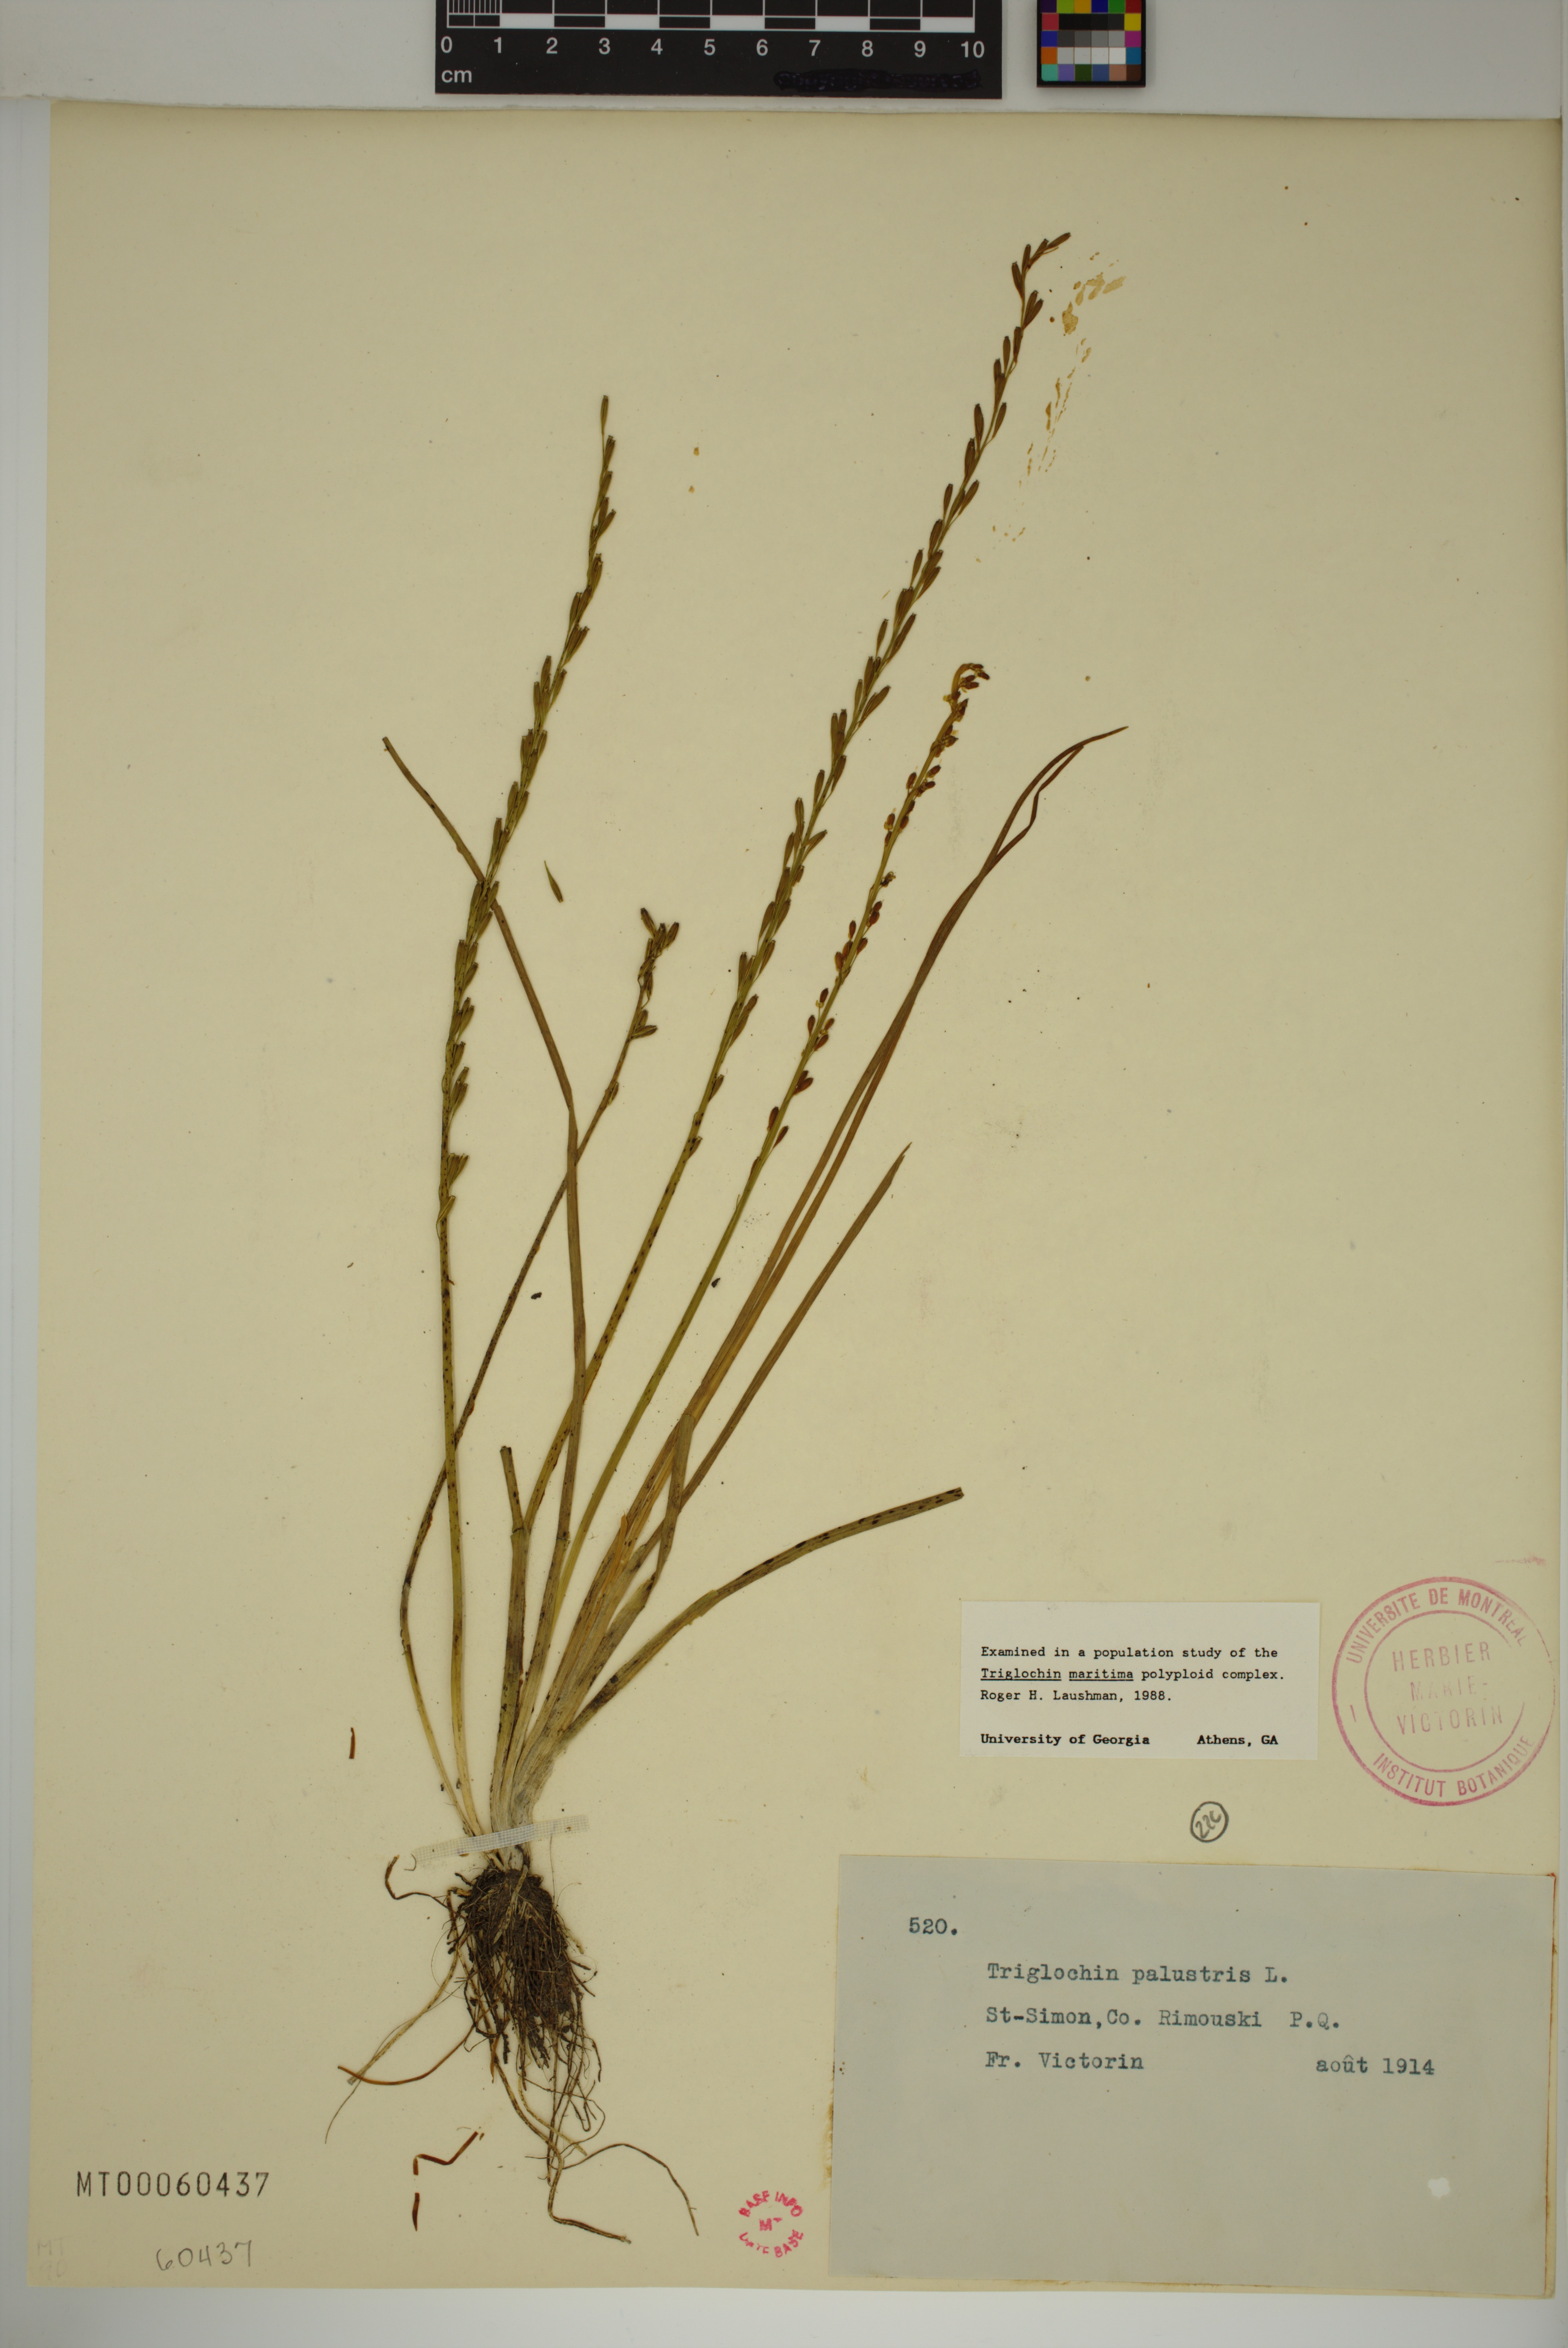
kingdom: Plantae
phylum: Tracheophyta
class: Liliopsida
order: Alismatales
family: Juncaginaceae
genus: Triglochin
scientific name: Triglochin palustris
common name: Marsh arrowgrass
